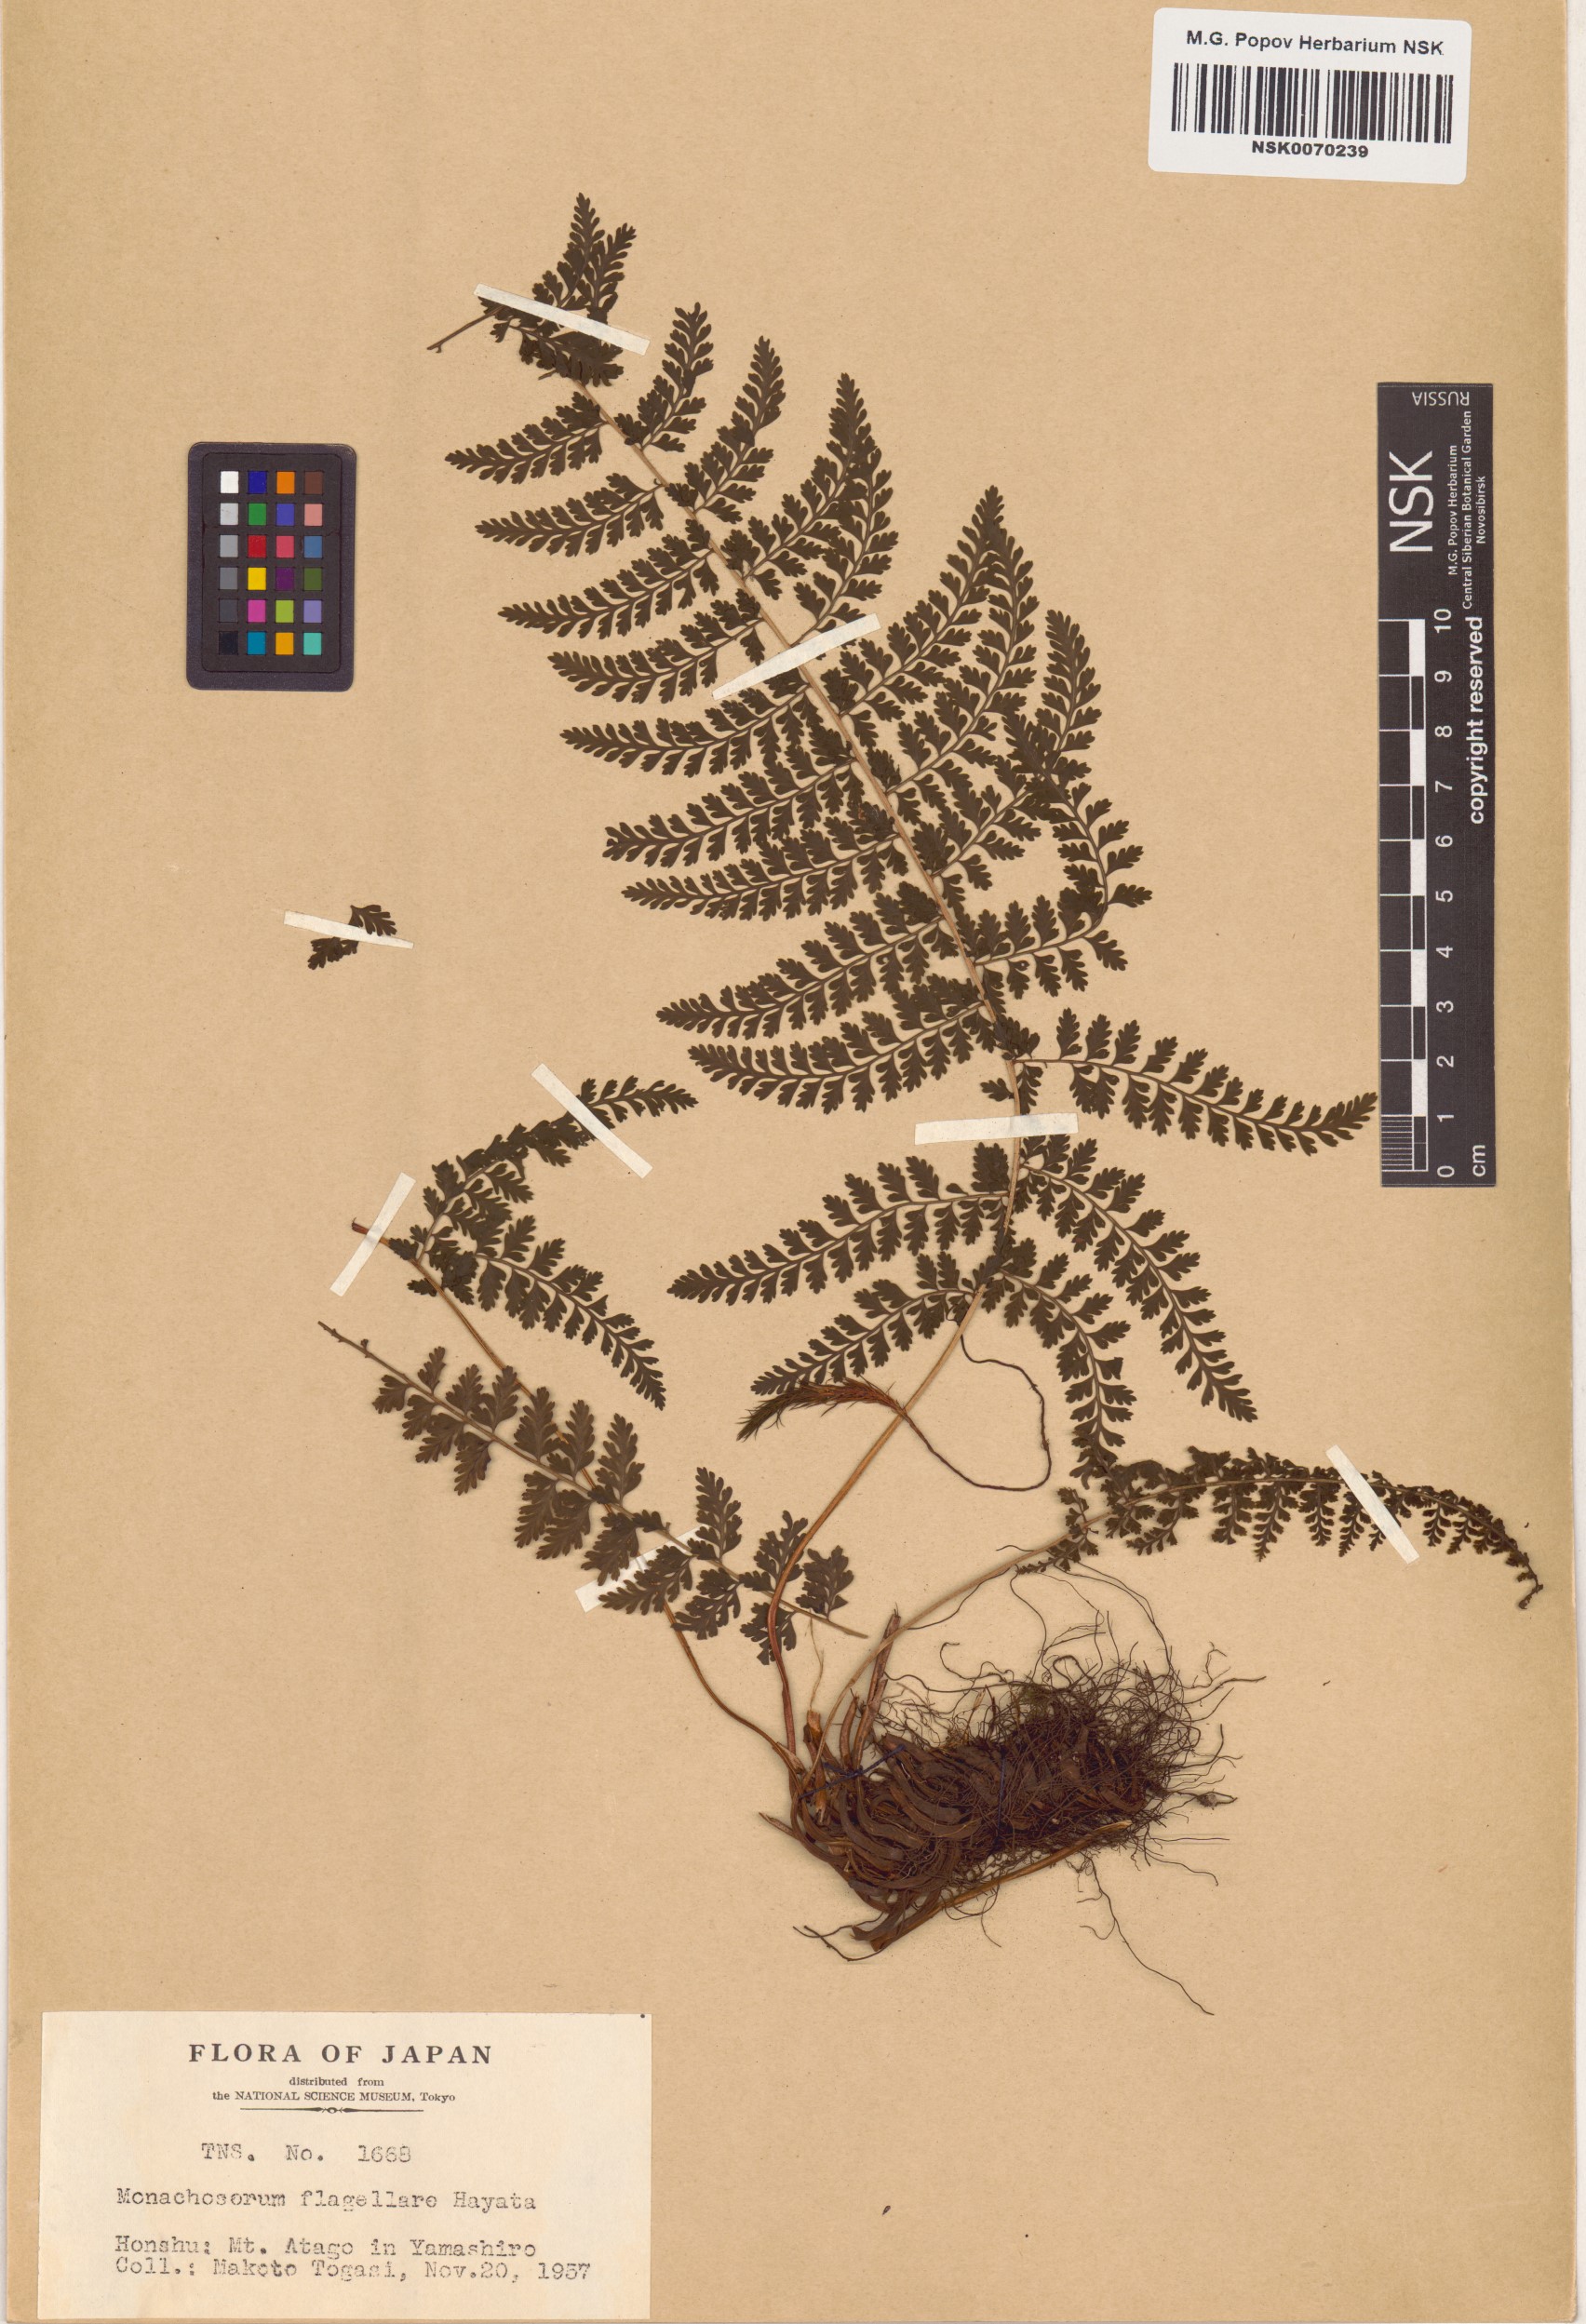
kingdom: Plantae
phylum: Tracheophyta
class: Polypodiopsida
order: Polypodiales
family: Dennstaedtiaceae
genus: Monachosorum
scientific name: Monachosorum flagellare
